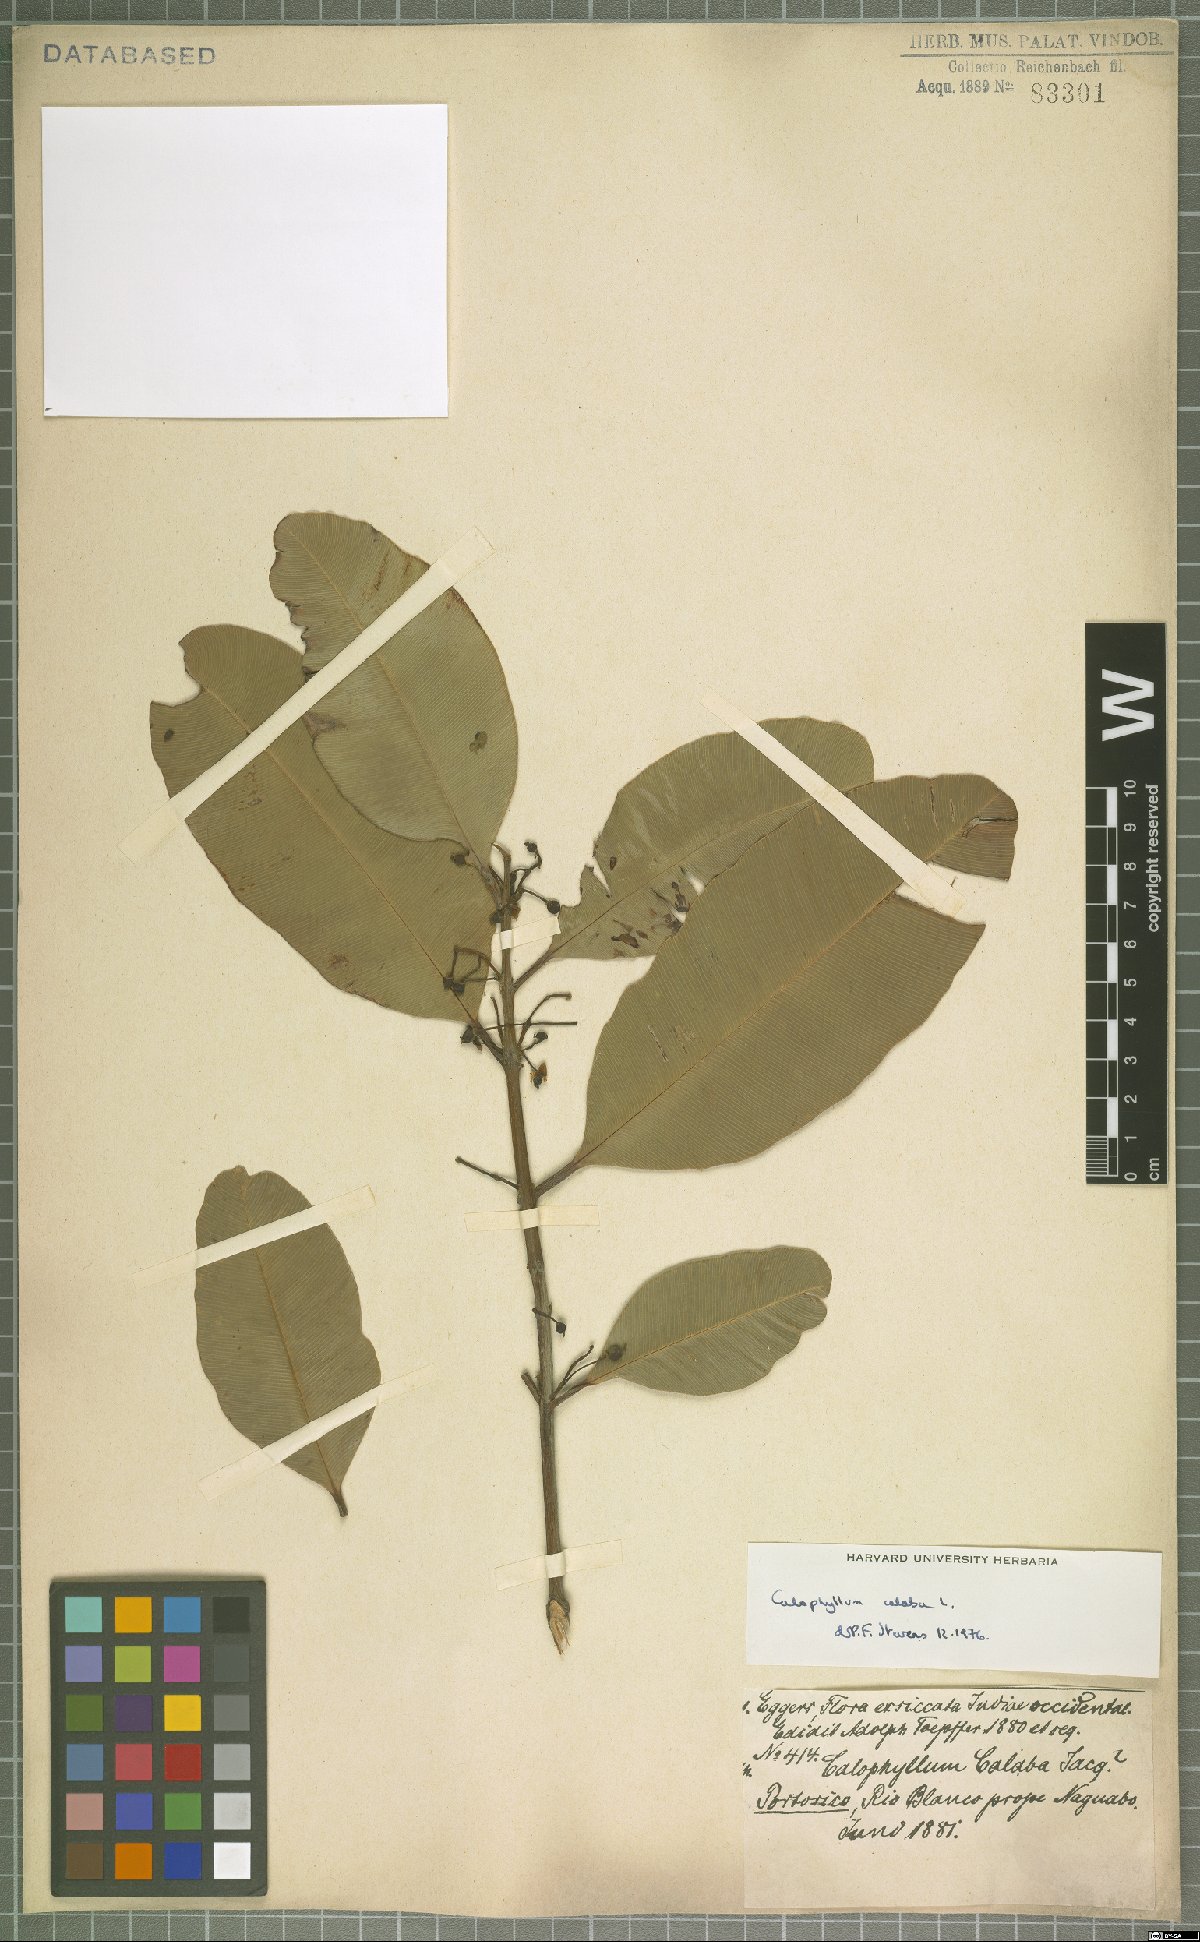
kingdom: Plantae
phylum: Tracheophyta
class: Magnoliopsida
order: Malpighiales
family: Calophyllaceae
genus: Calophyllum
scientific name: Calophyllum calaba
